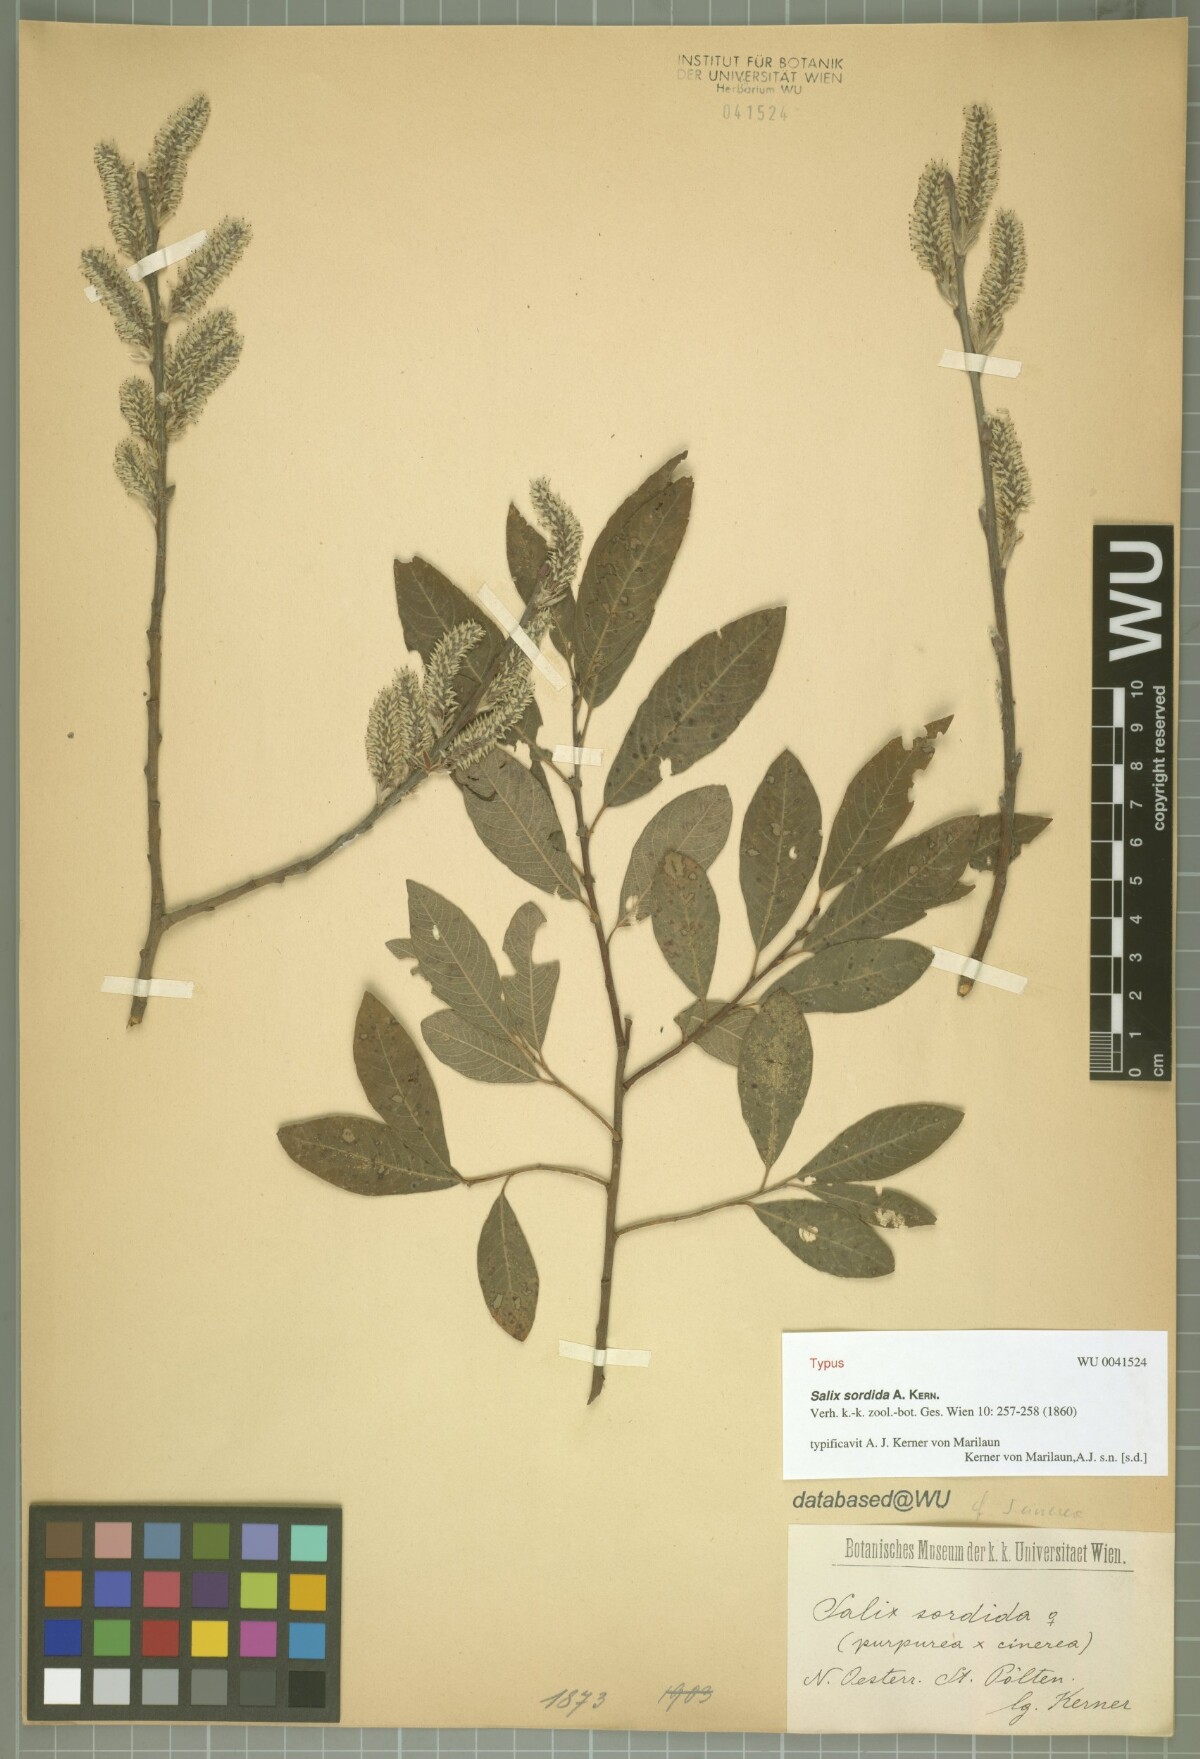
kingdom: Plantae
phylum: Tracheophyta
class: Magnoliopsida
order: Malpighiales
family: Salicaceae
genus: Salix
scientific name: Salix sordida
